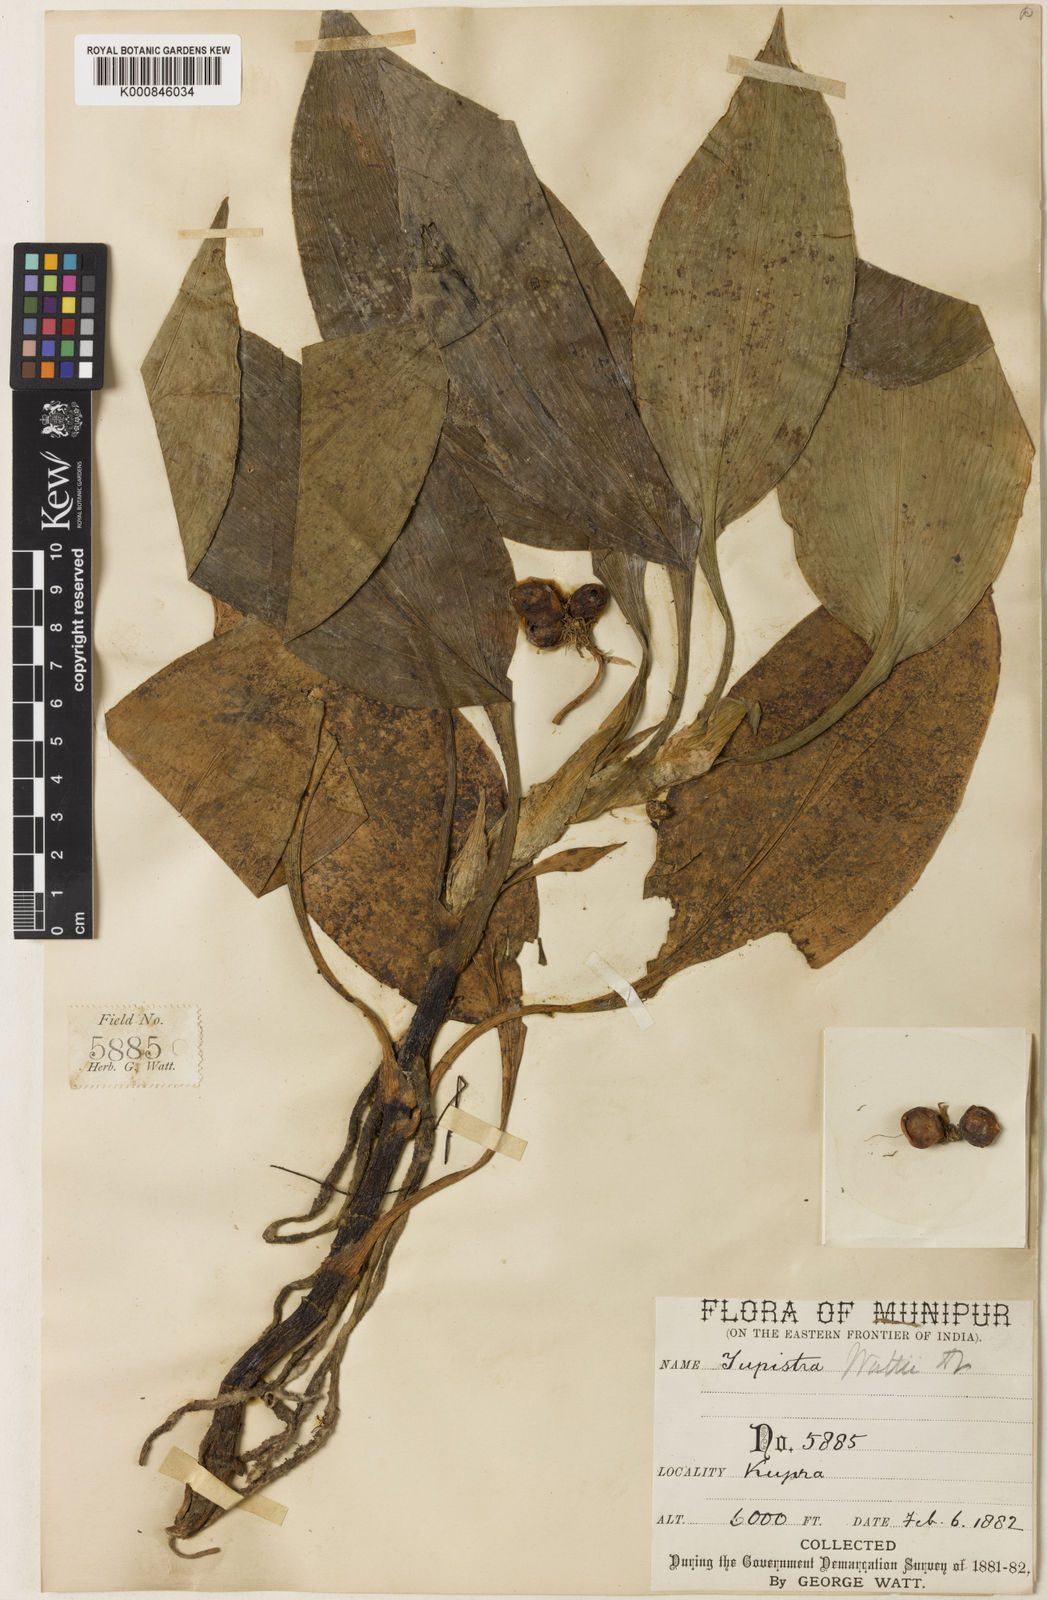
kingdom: Plantae
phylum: Tracheophyta
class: Liliopsida
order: Asparagales
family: Asparagaceae
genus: Rohdea
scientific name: Rohdea wattii
